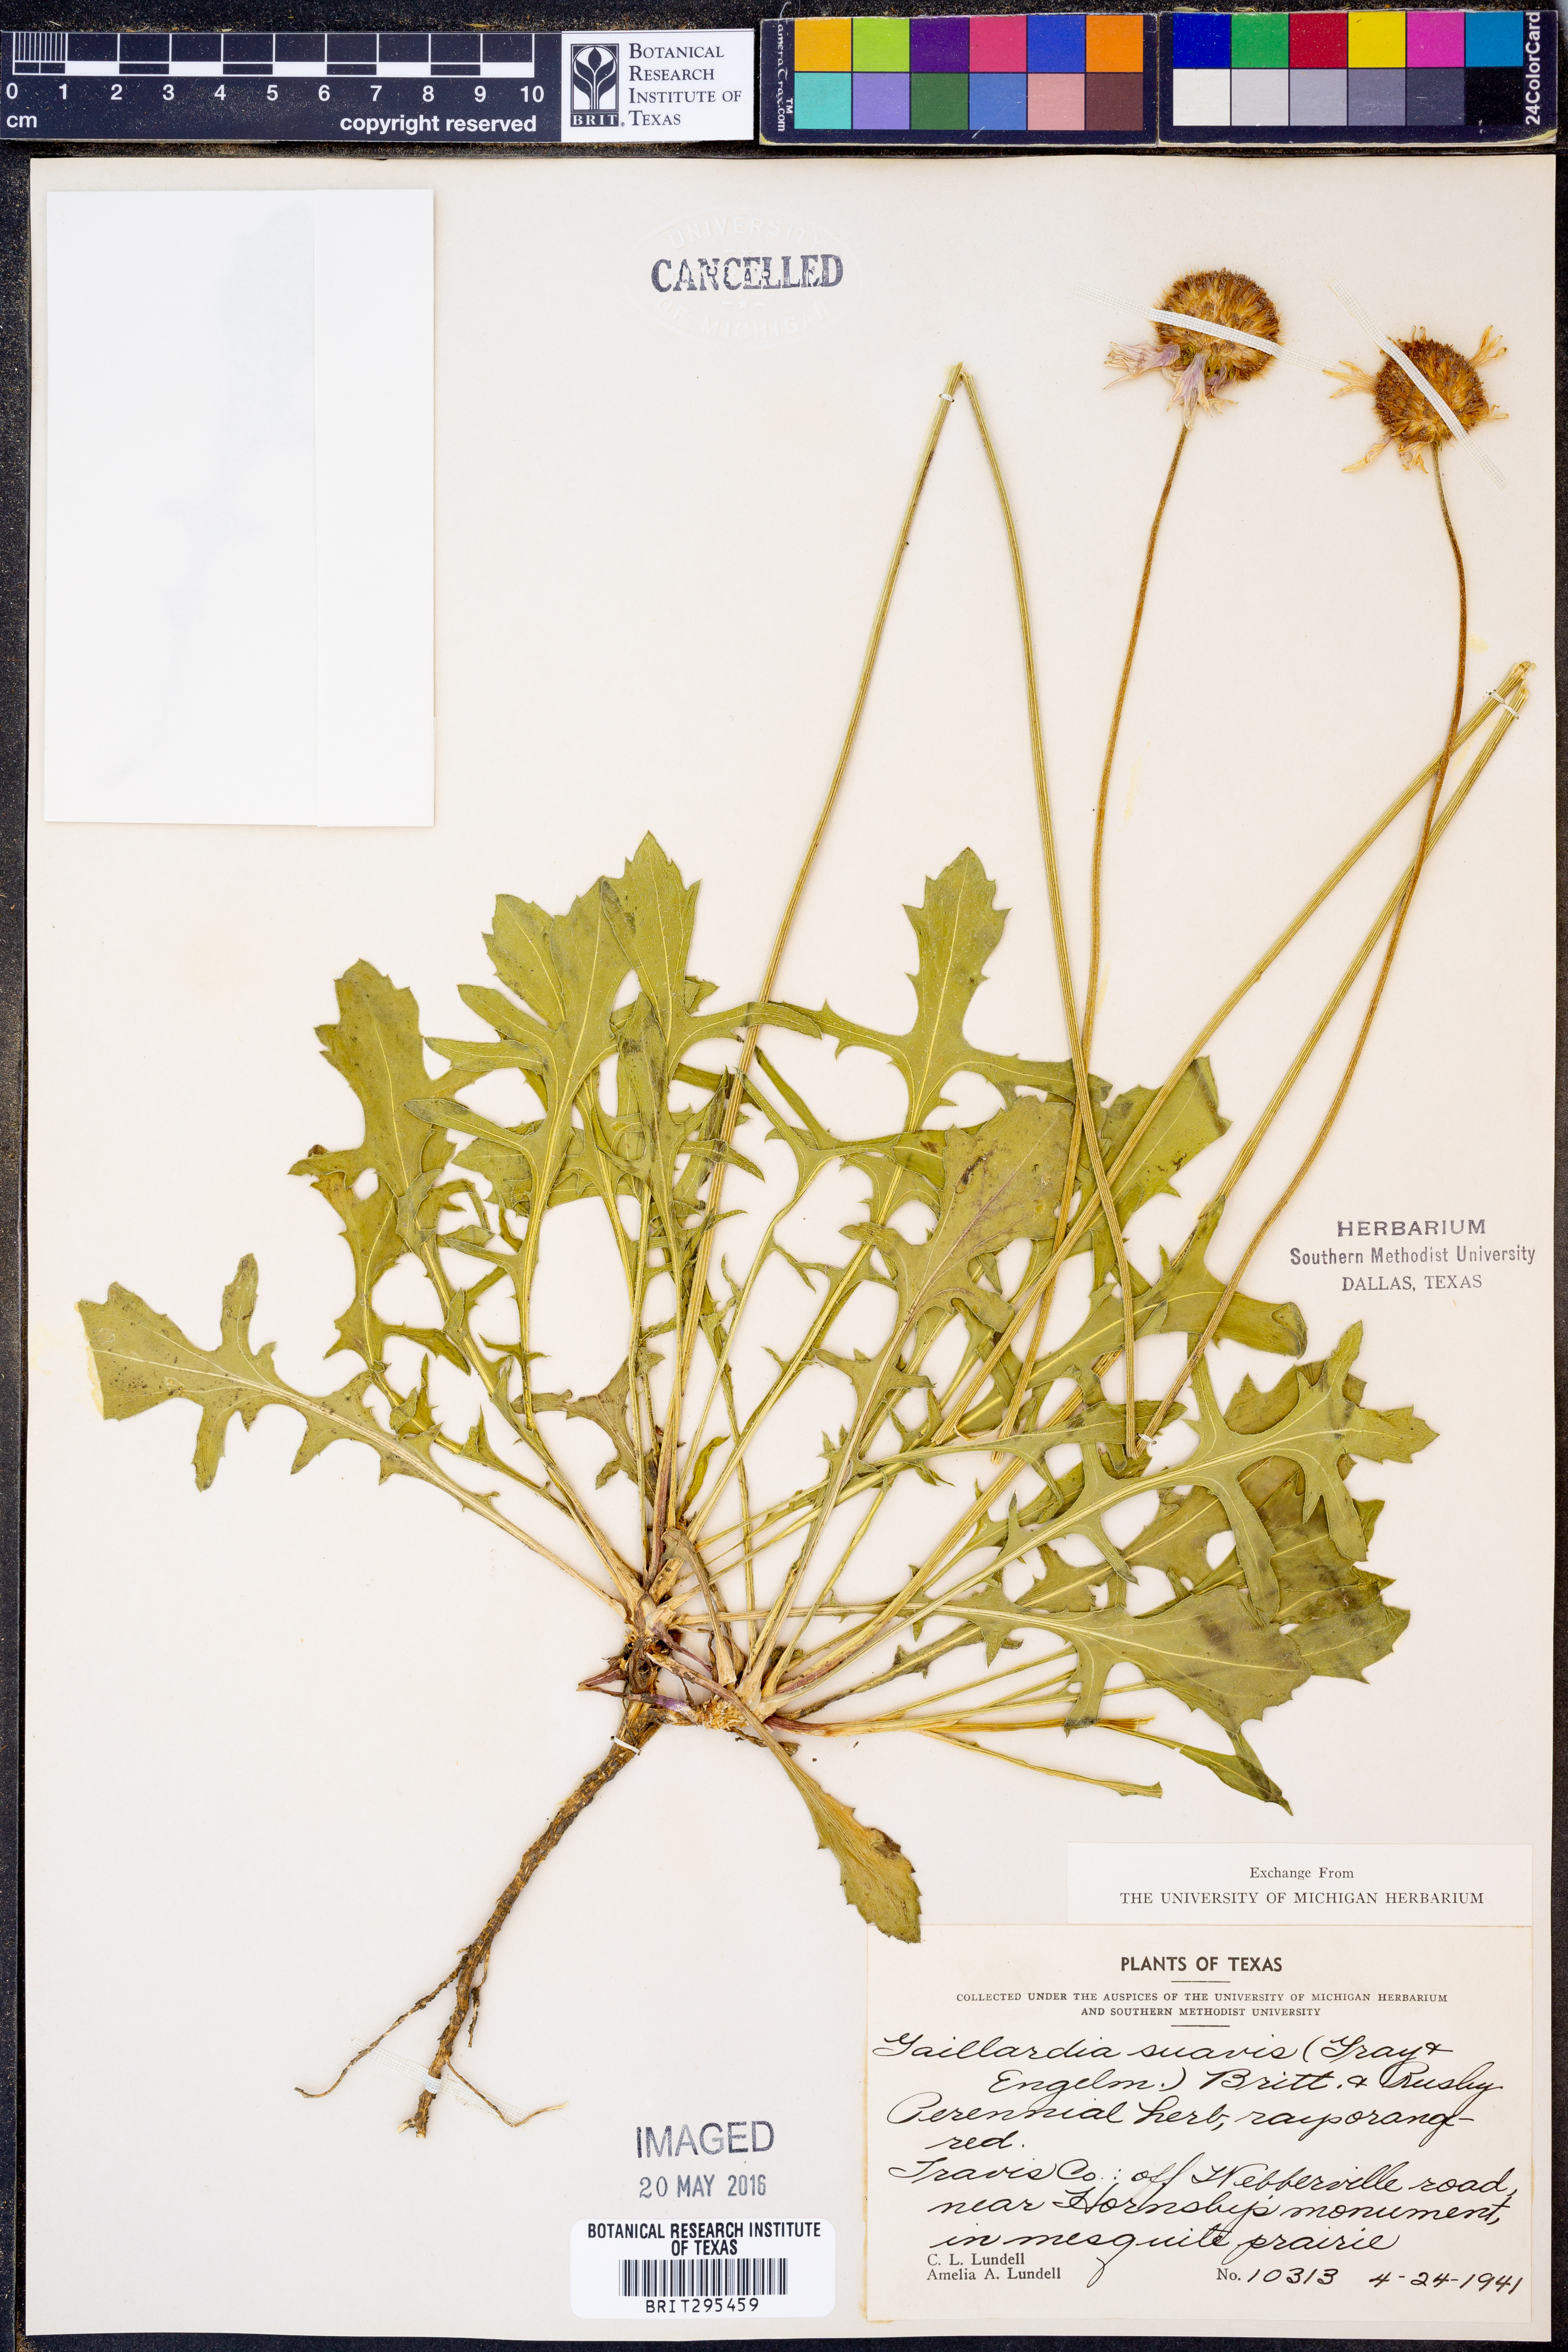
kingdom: Plantae
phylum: Tracheophyta
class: Magnoliopsida
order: Asterales
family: Asteraceae
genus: Gaillardia
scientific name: Gaillardia suavis
